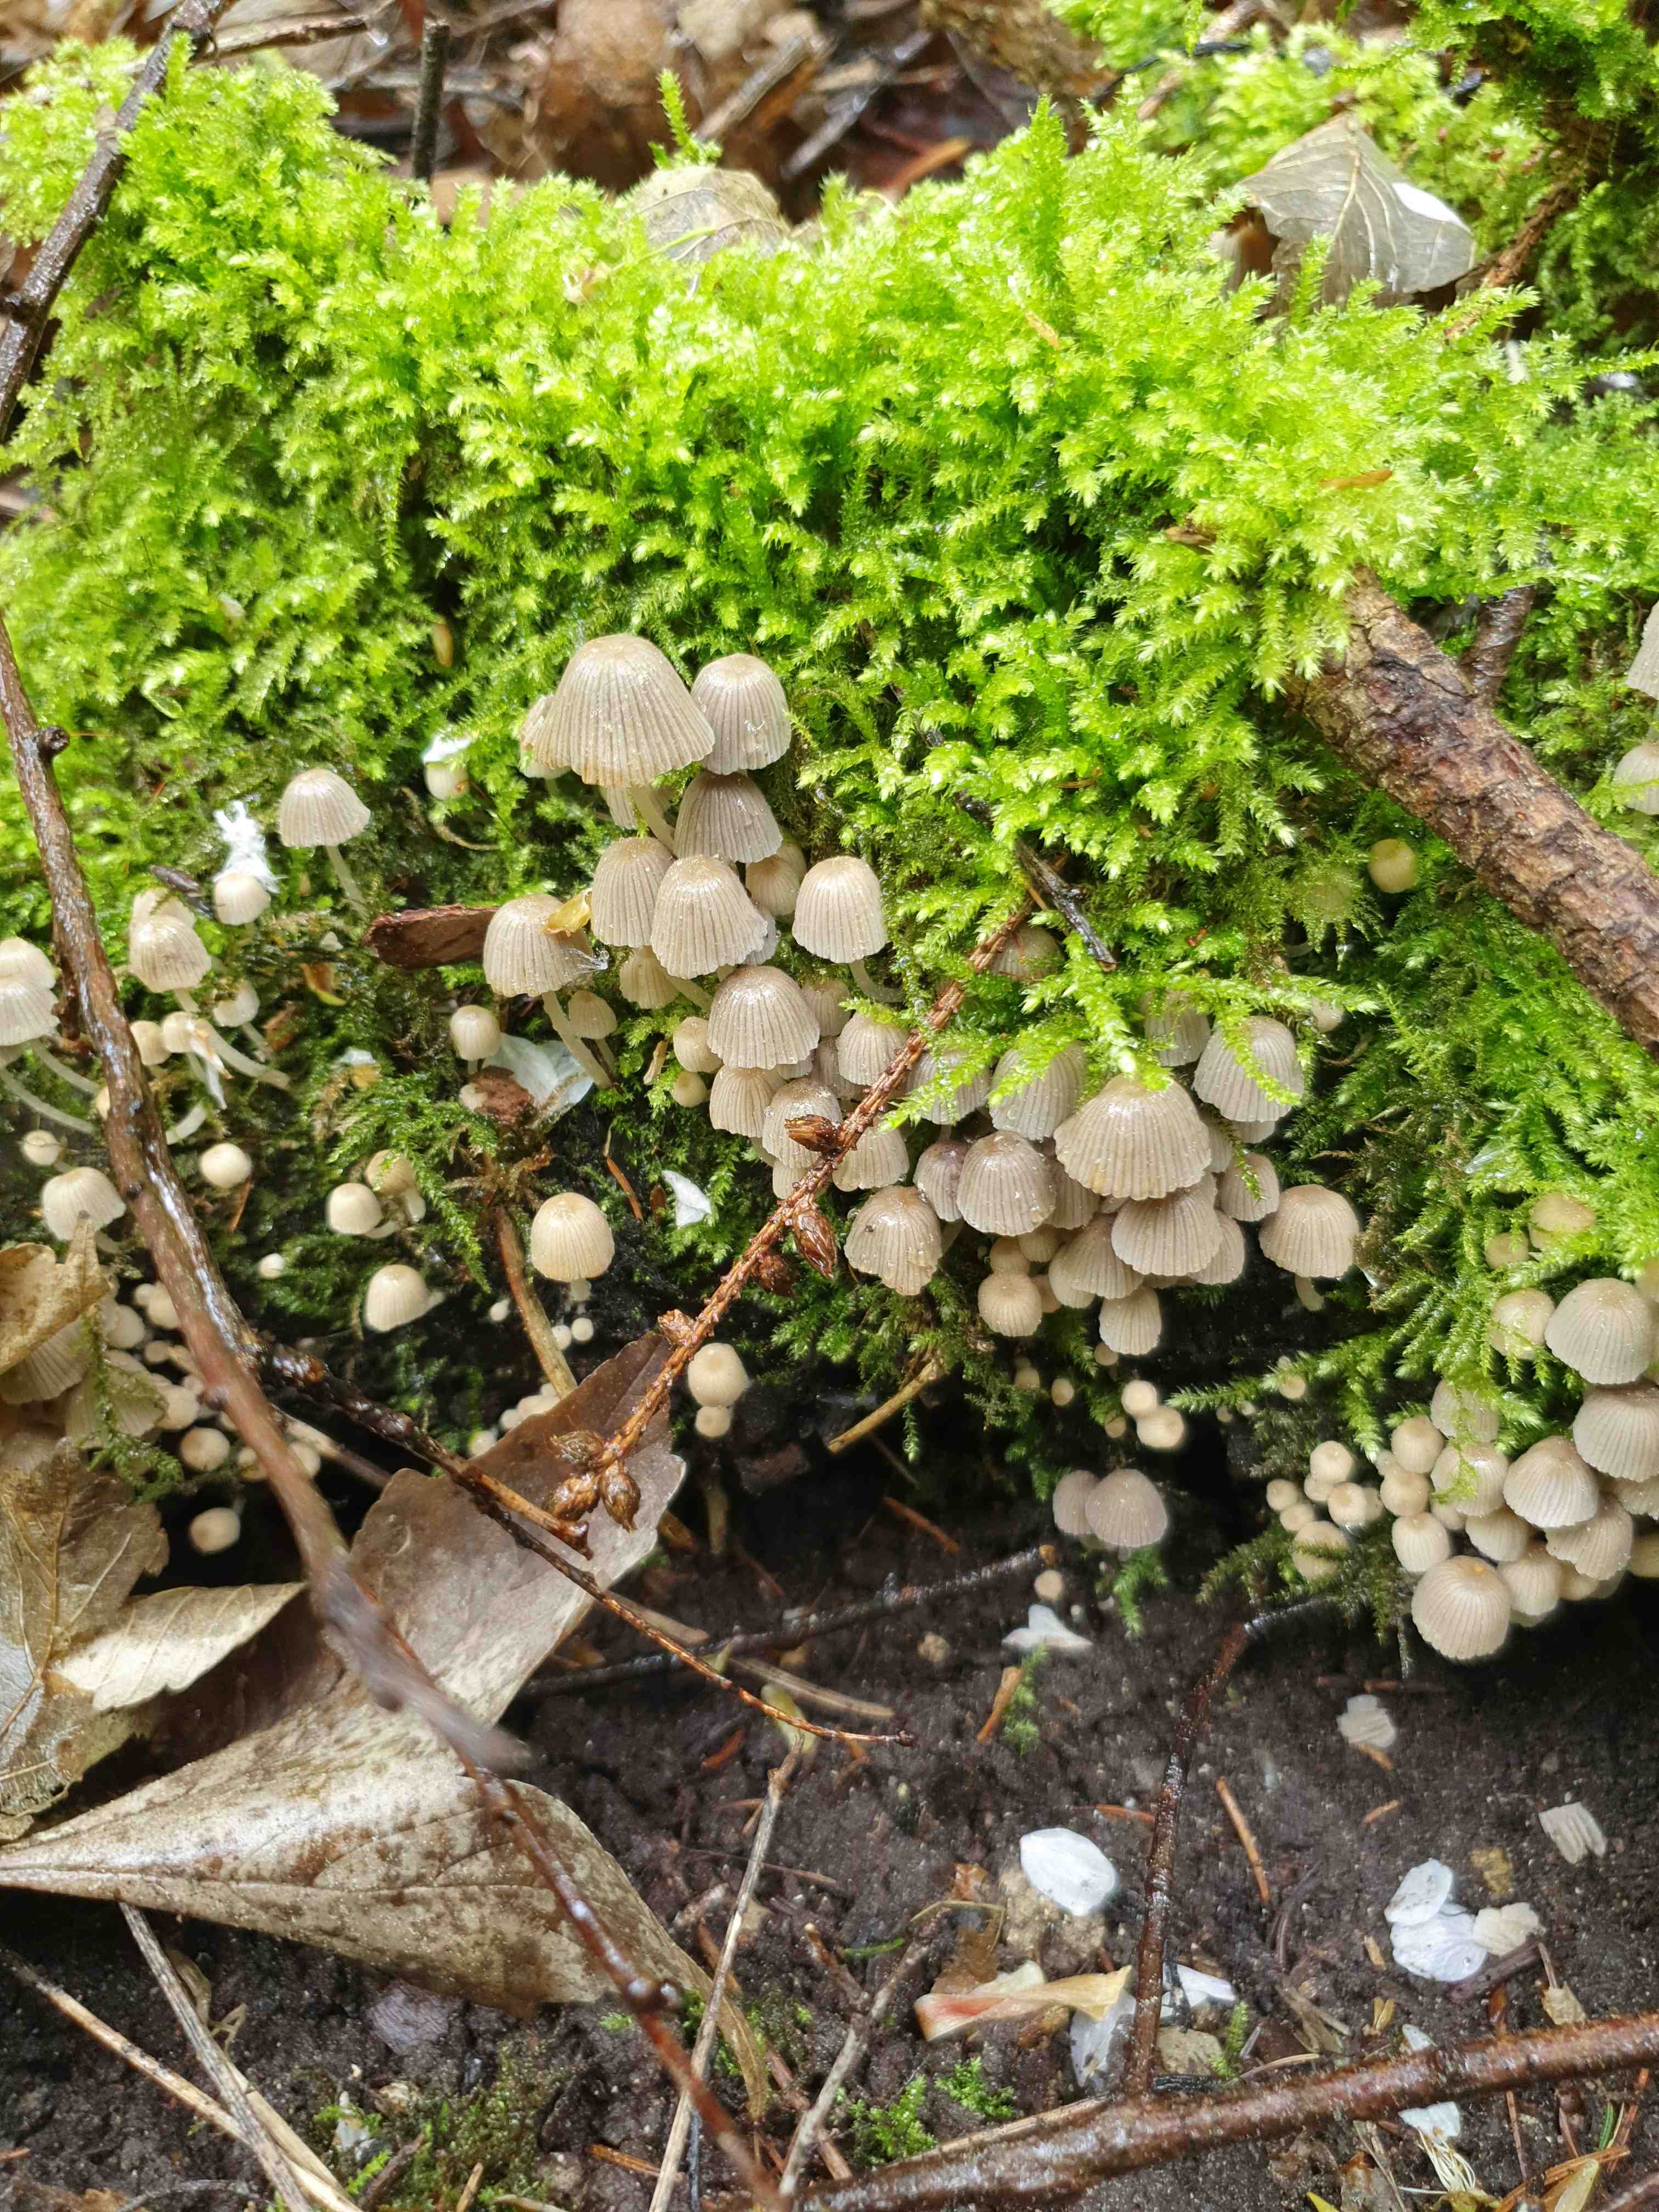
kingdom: Fungi
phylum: Basidiomycota
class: Agaricomycetes
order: Agaricales
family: Psathyrellaceae
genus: Coprinellus
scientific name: Coprinellus disseminatus
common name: bredsået blækhat
